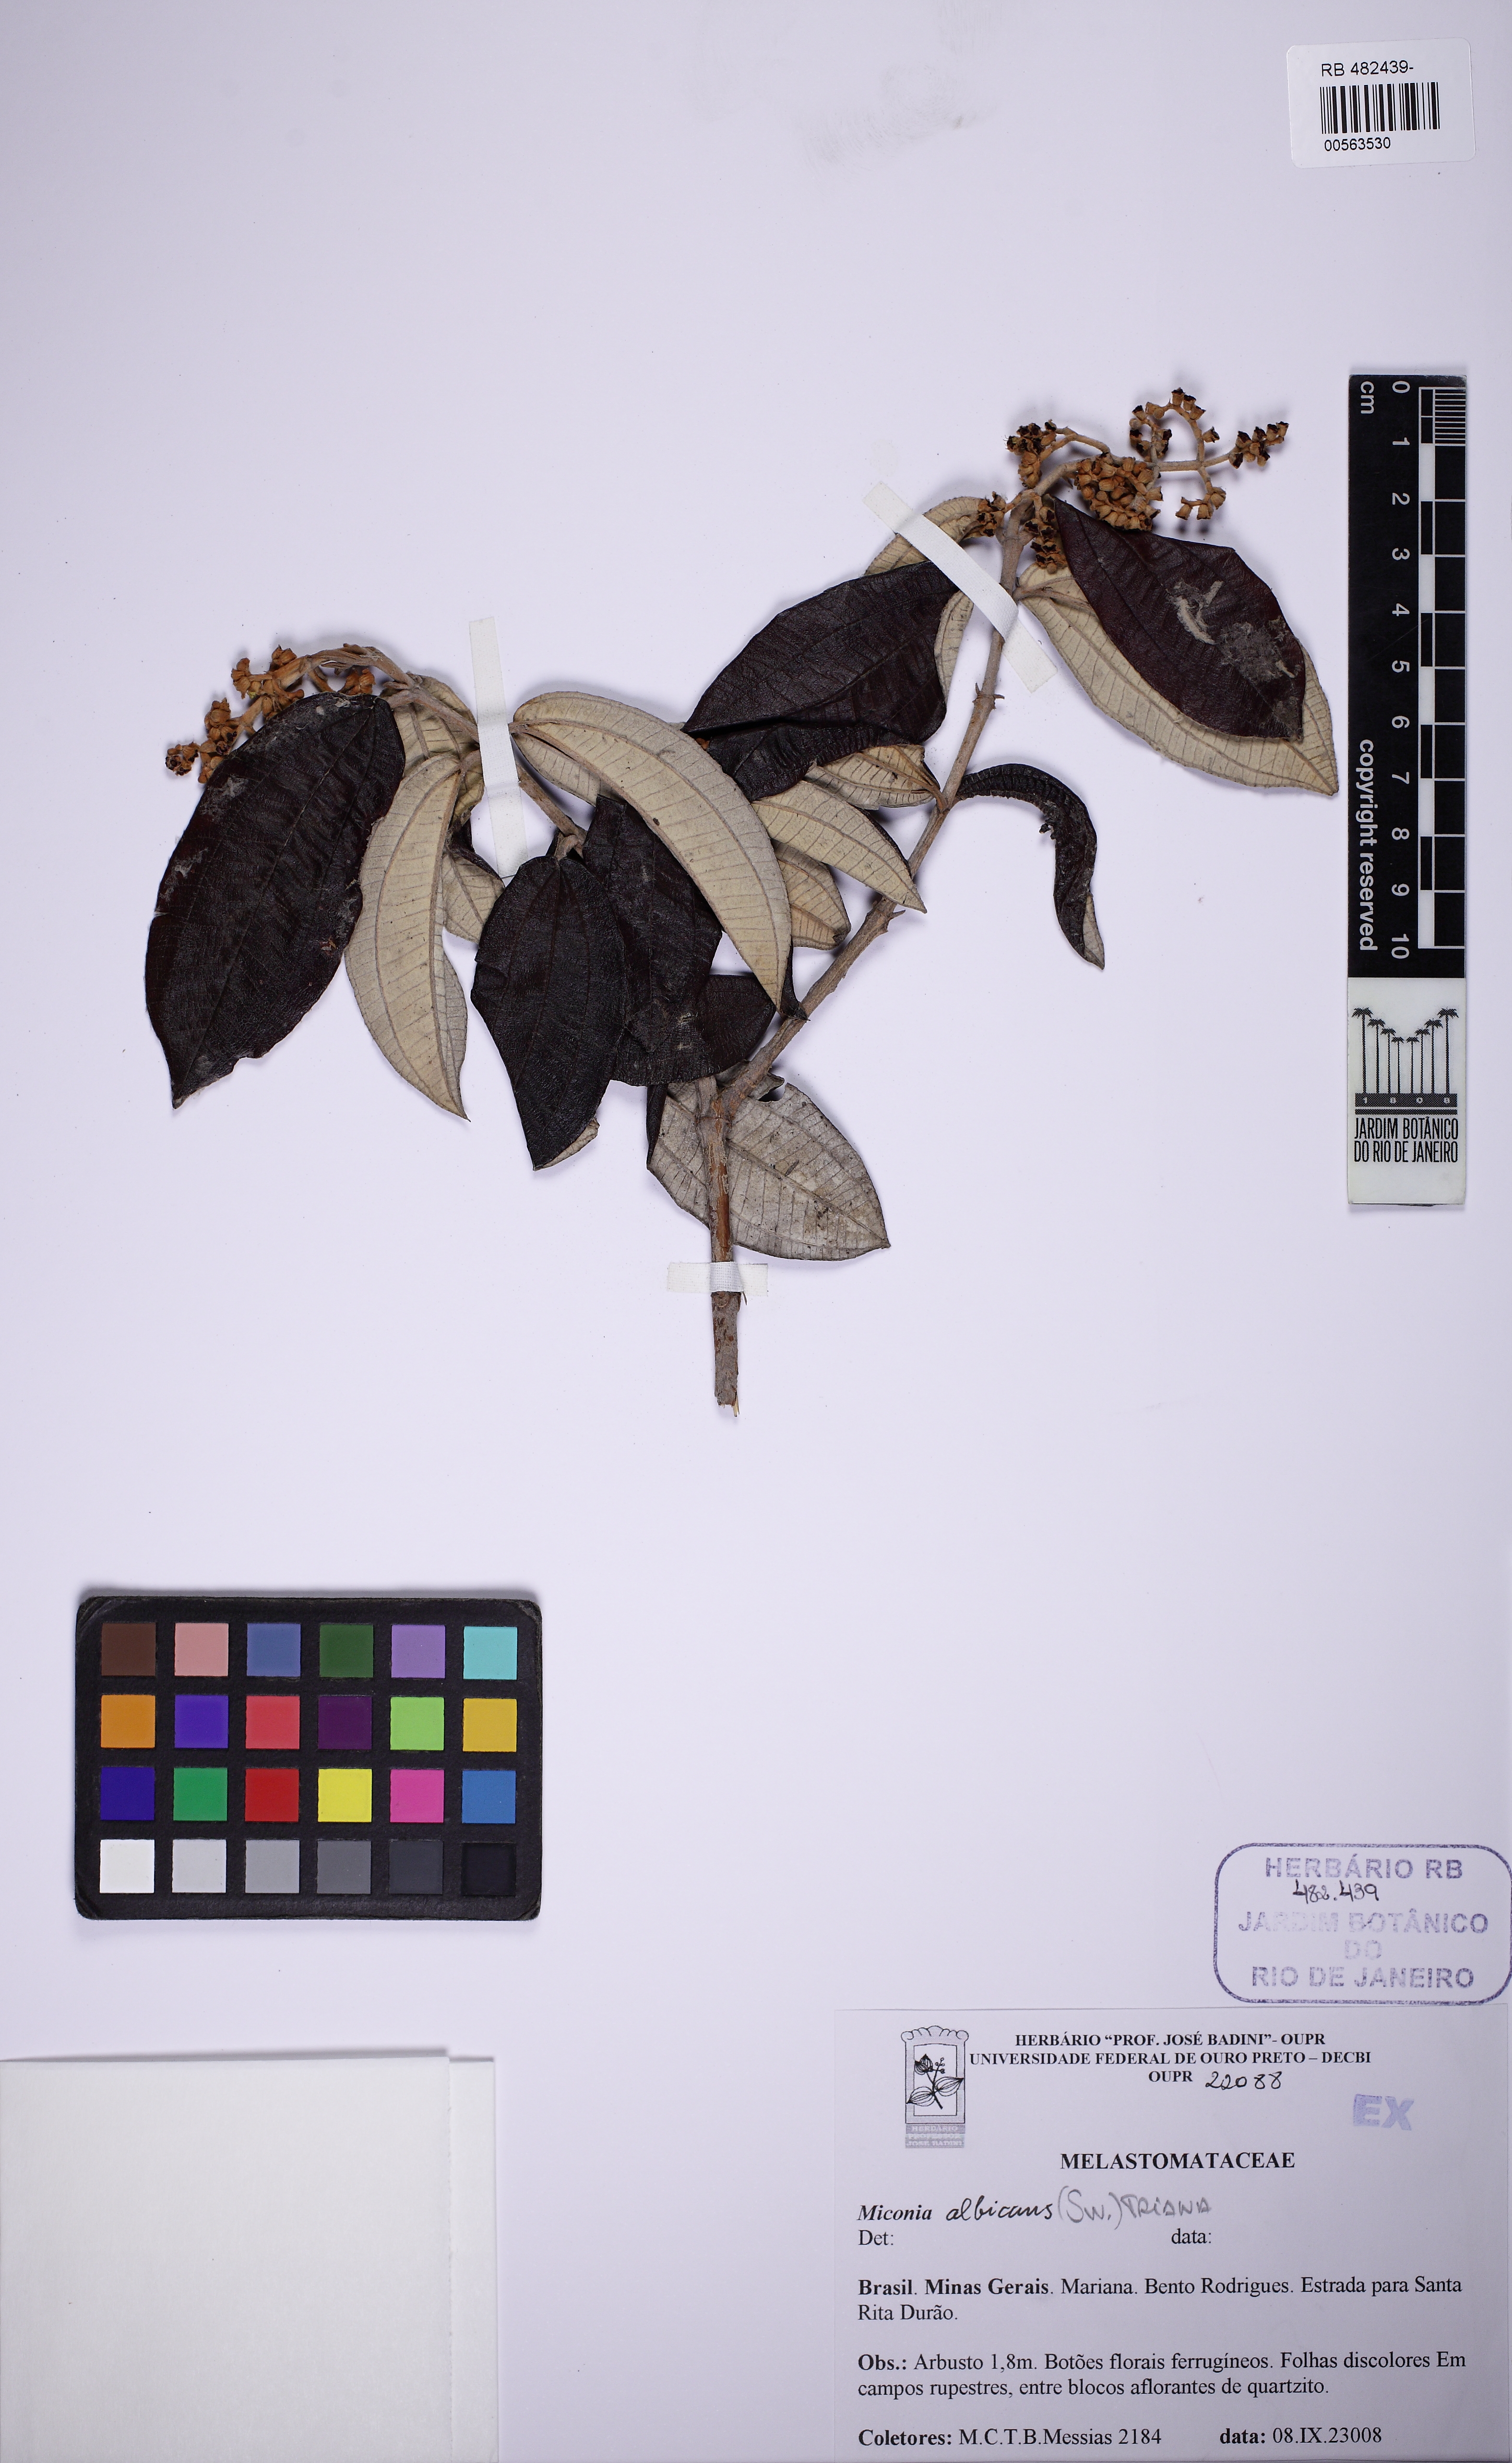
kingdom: Plantae
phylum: Tracheophyta
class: Magnoliopsida
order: Myrtales
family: Melastomataceae
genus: Miconia
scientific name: Miconia albicans
